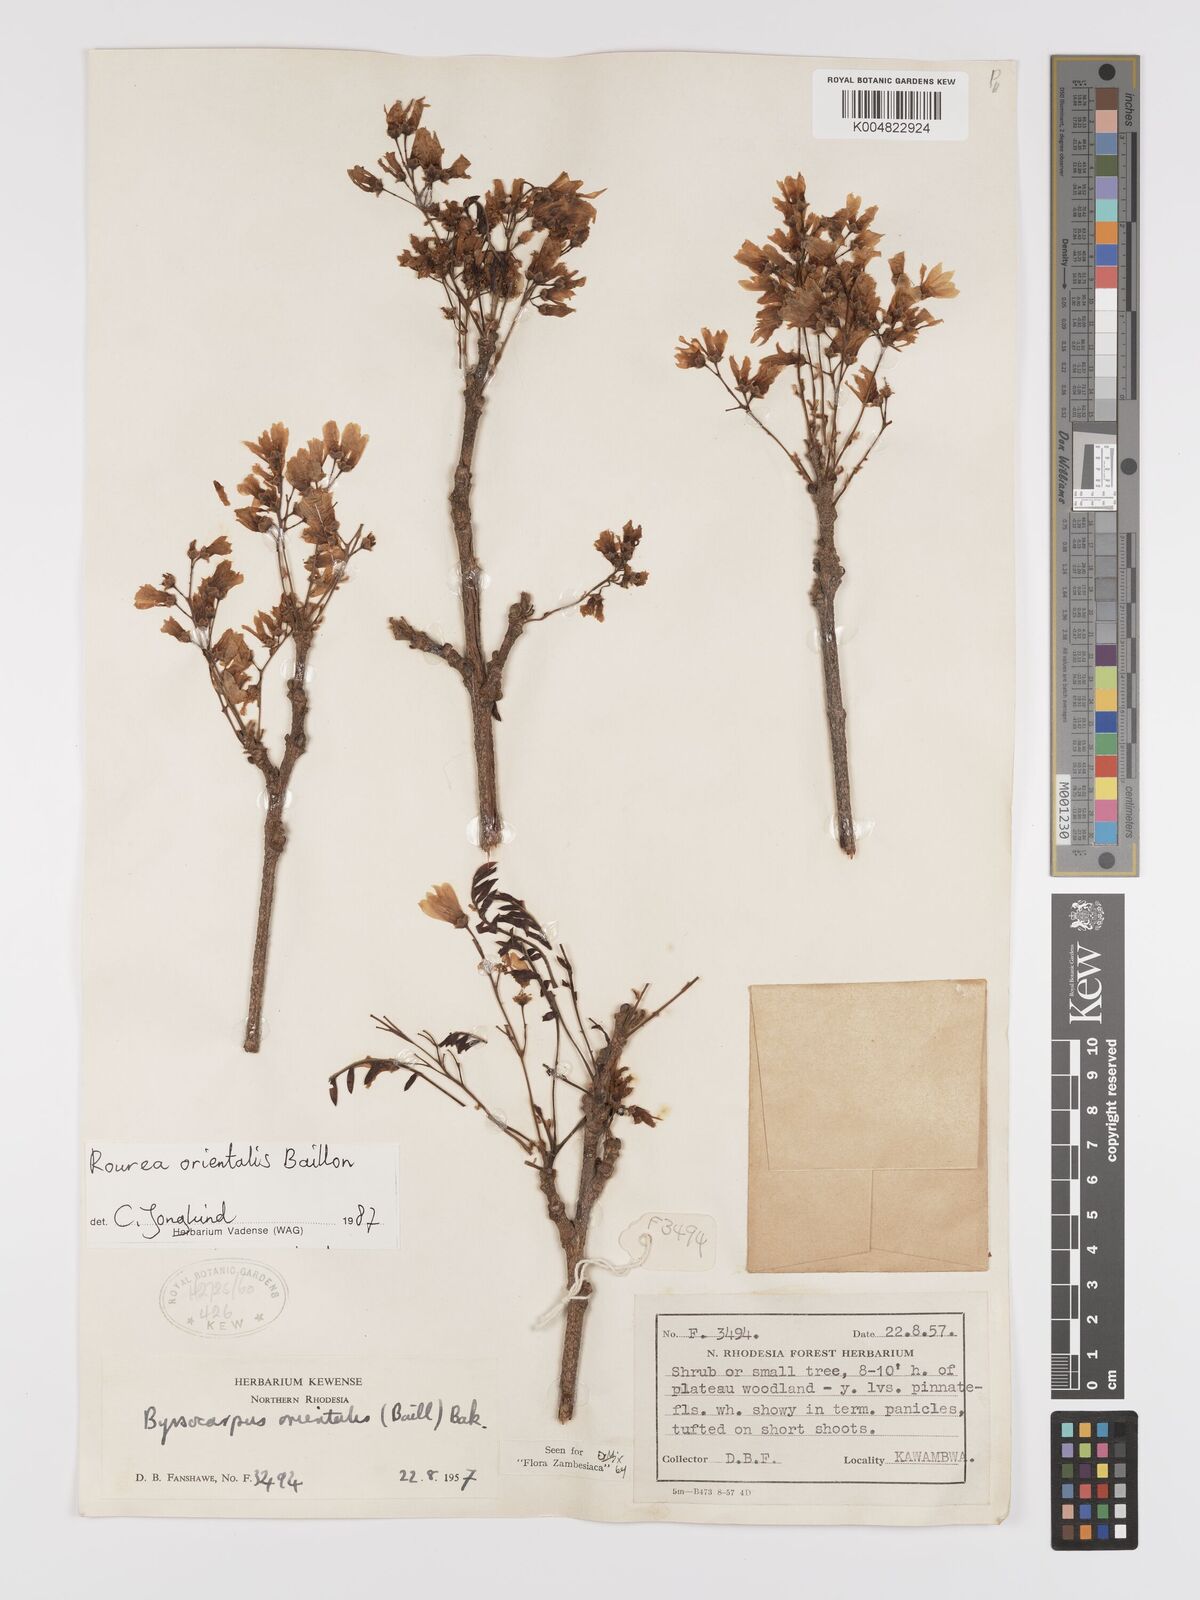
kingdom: Plantae
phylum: Tracheophyta
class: Magnoliopsida
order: Oxalidales
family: Connaraceae
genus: Rourea
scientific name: Rourea orientalis
